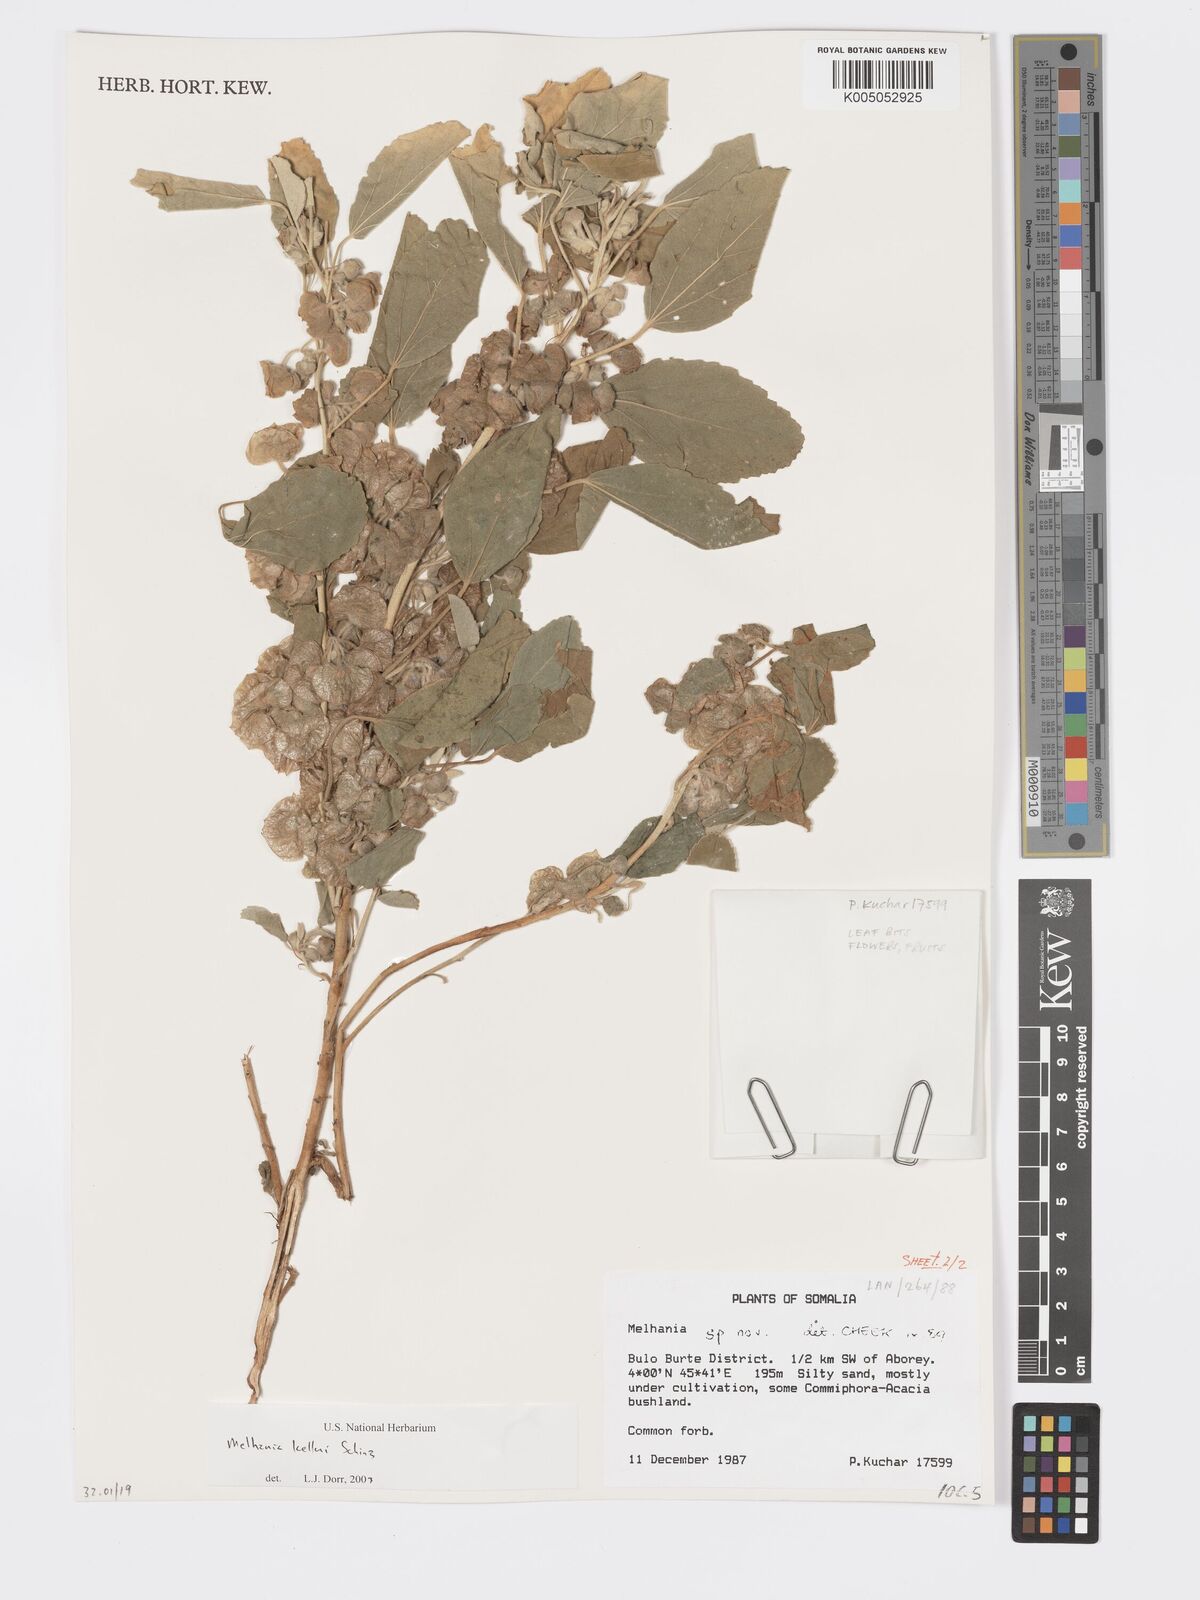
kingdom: Plantae
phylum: Tracheophyta
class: Magnoliopsida
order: Malvales
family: Malvaceae
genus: Melhania
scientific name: Melhania kelleri
